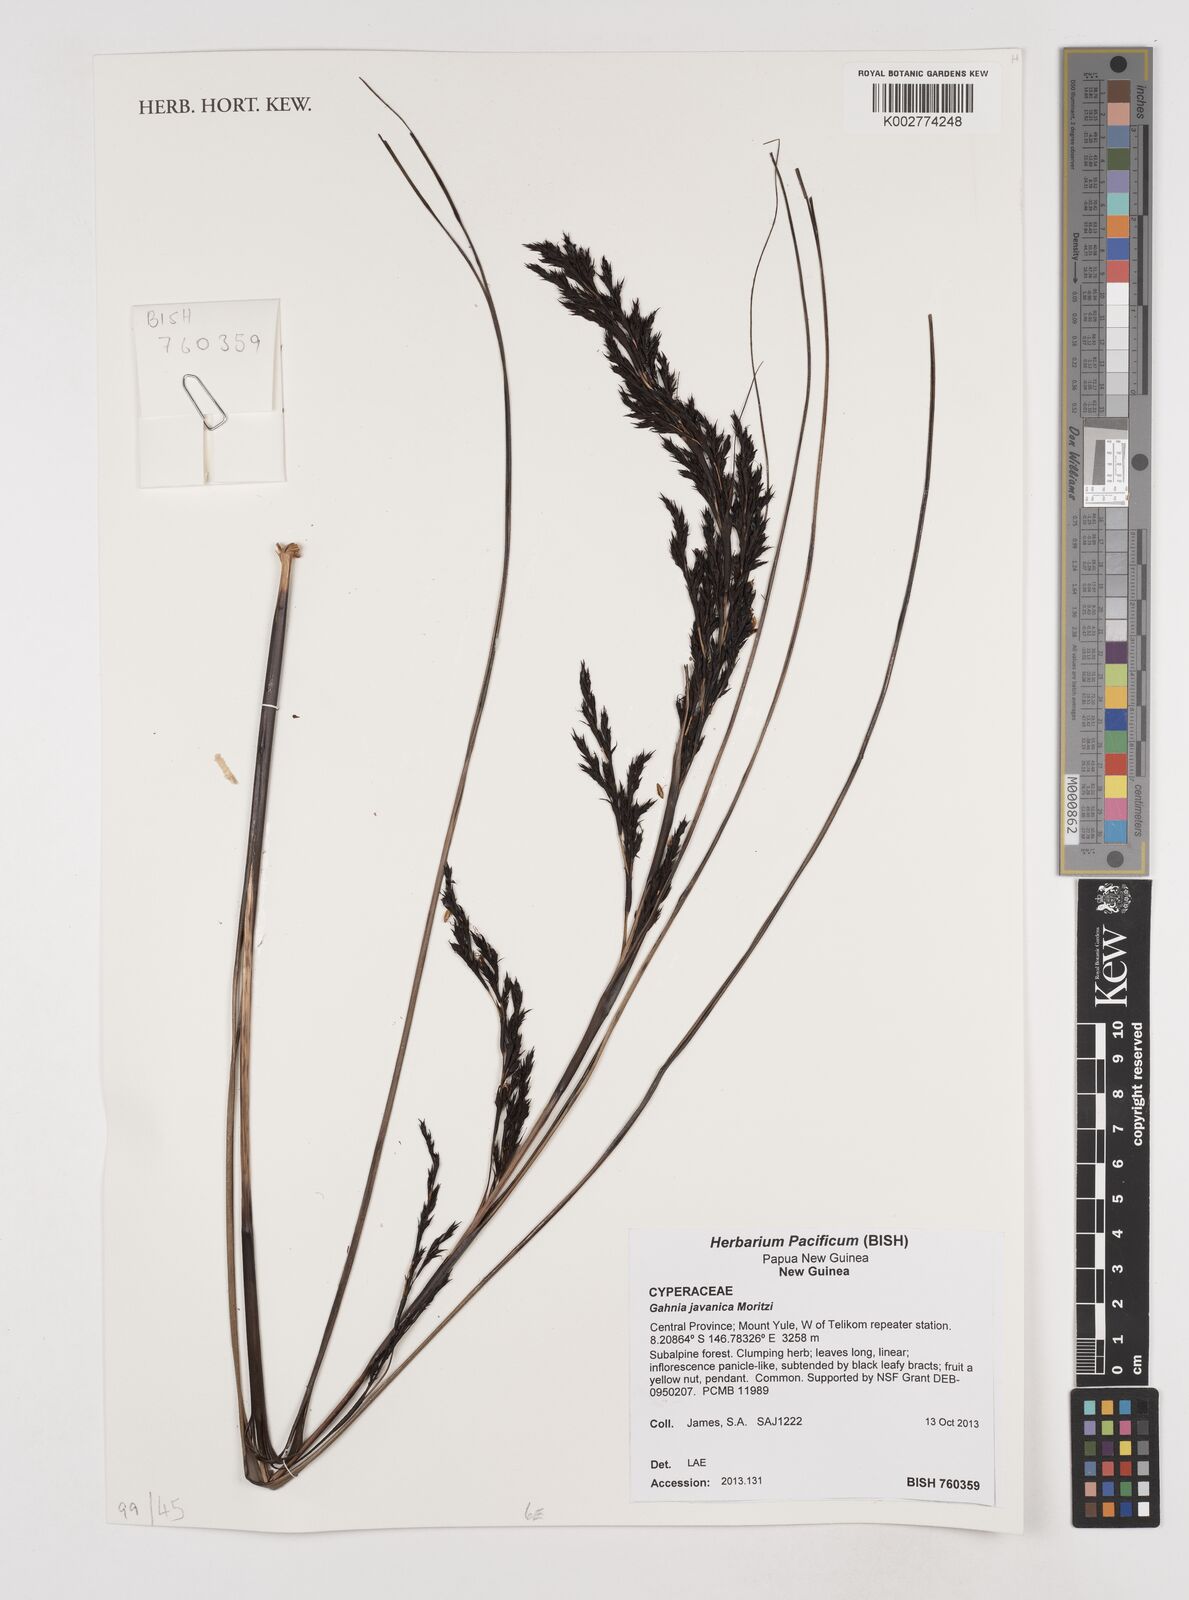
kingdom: Plantae
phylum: Tracheophyta
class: Liliopsida
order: Poales
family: Cyperaceae
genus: Gahnia
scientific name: Gahnia javanica
